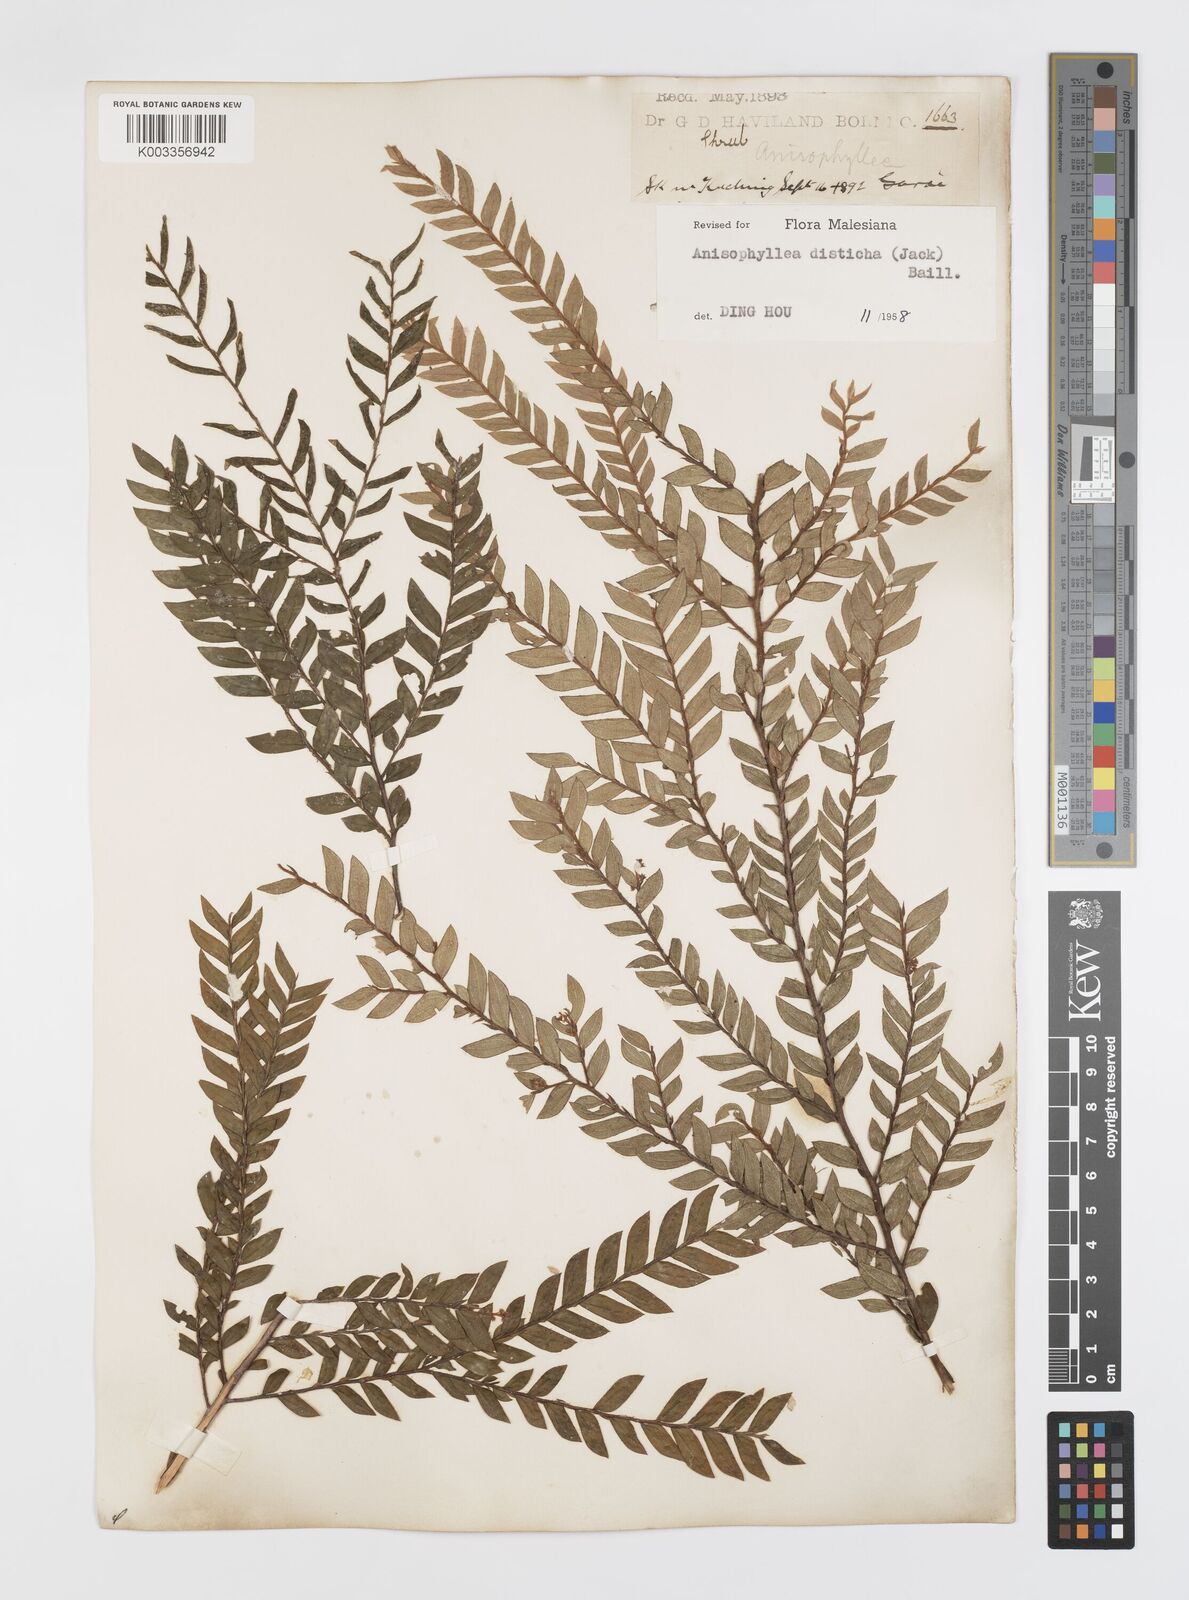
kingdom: Plantae
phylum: Tracheophyta
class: Magnoliopsida
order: Cucurbitales
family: Anisophylleaceae
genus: Anisophyllea
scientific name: Anisophyllea disticha
